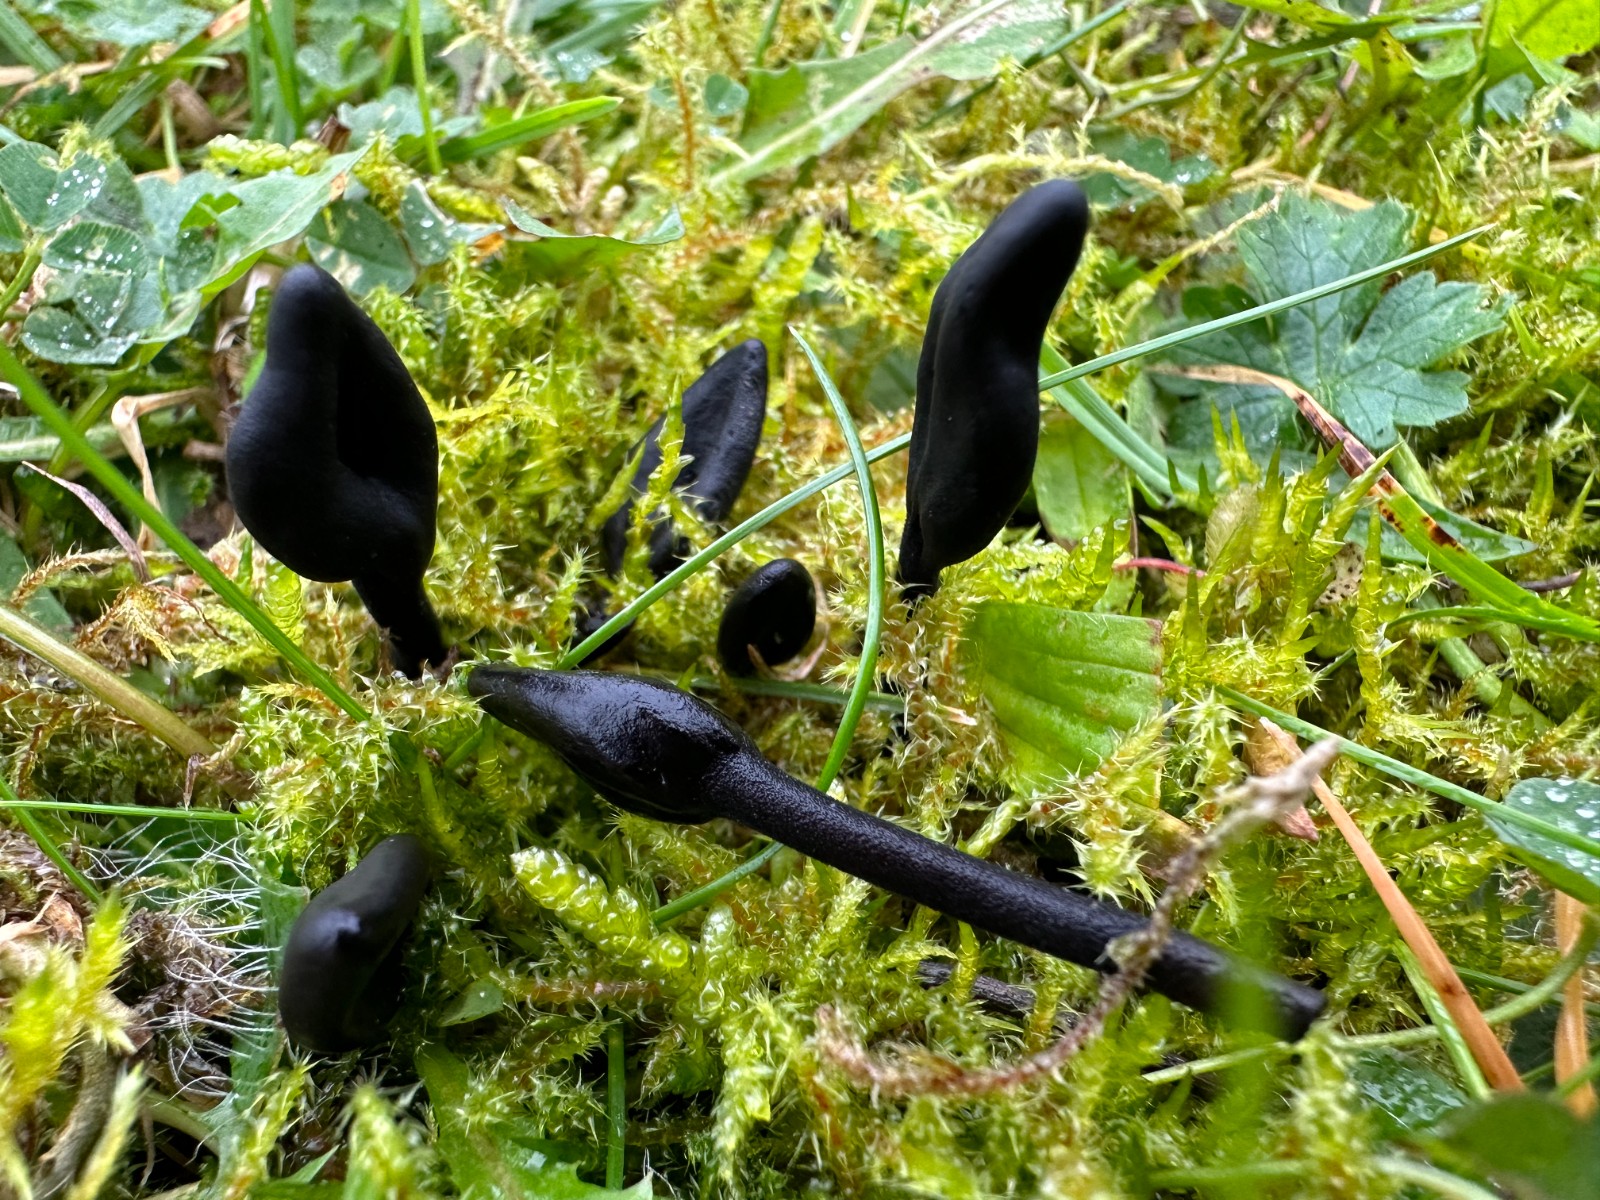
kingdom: Fungi
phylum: Ascomycota
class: Geoglossomycetes
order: Geoglossales
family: Geoglossaceae
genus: Geoglossum
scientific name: Geoglossum
